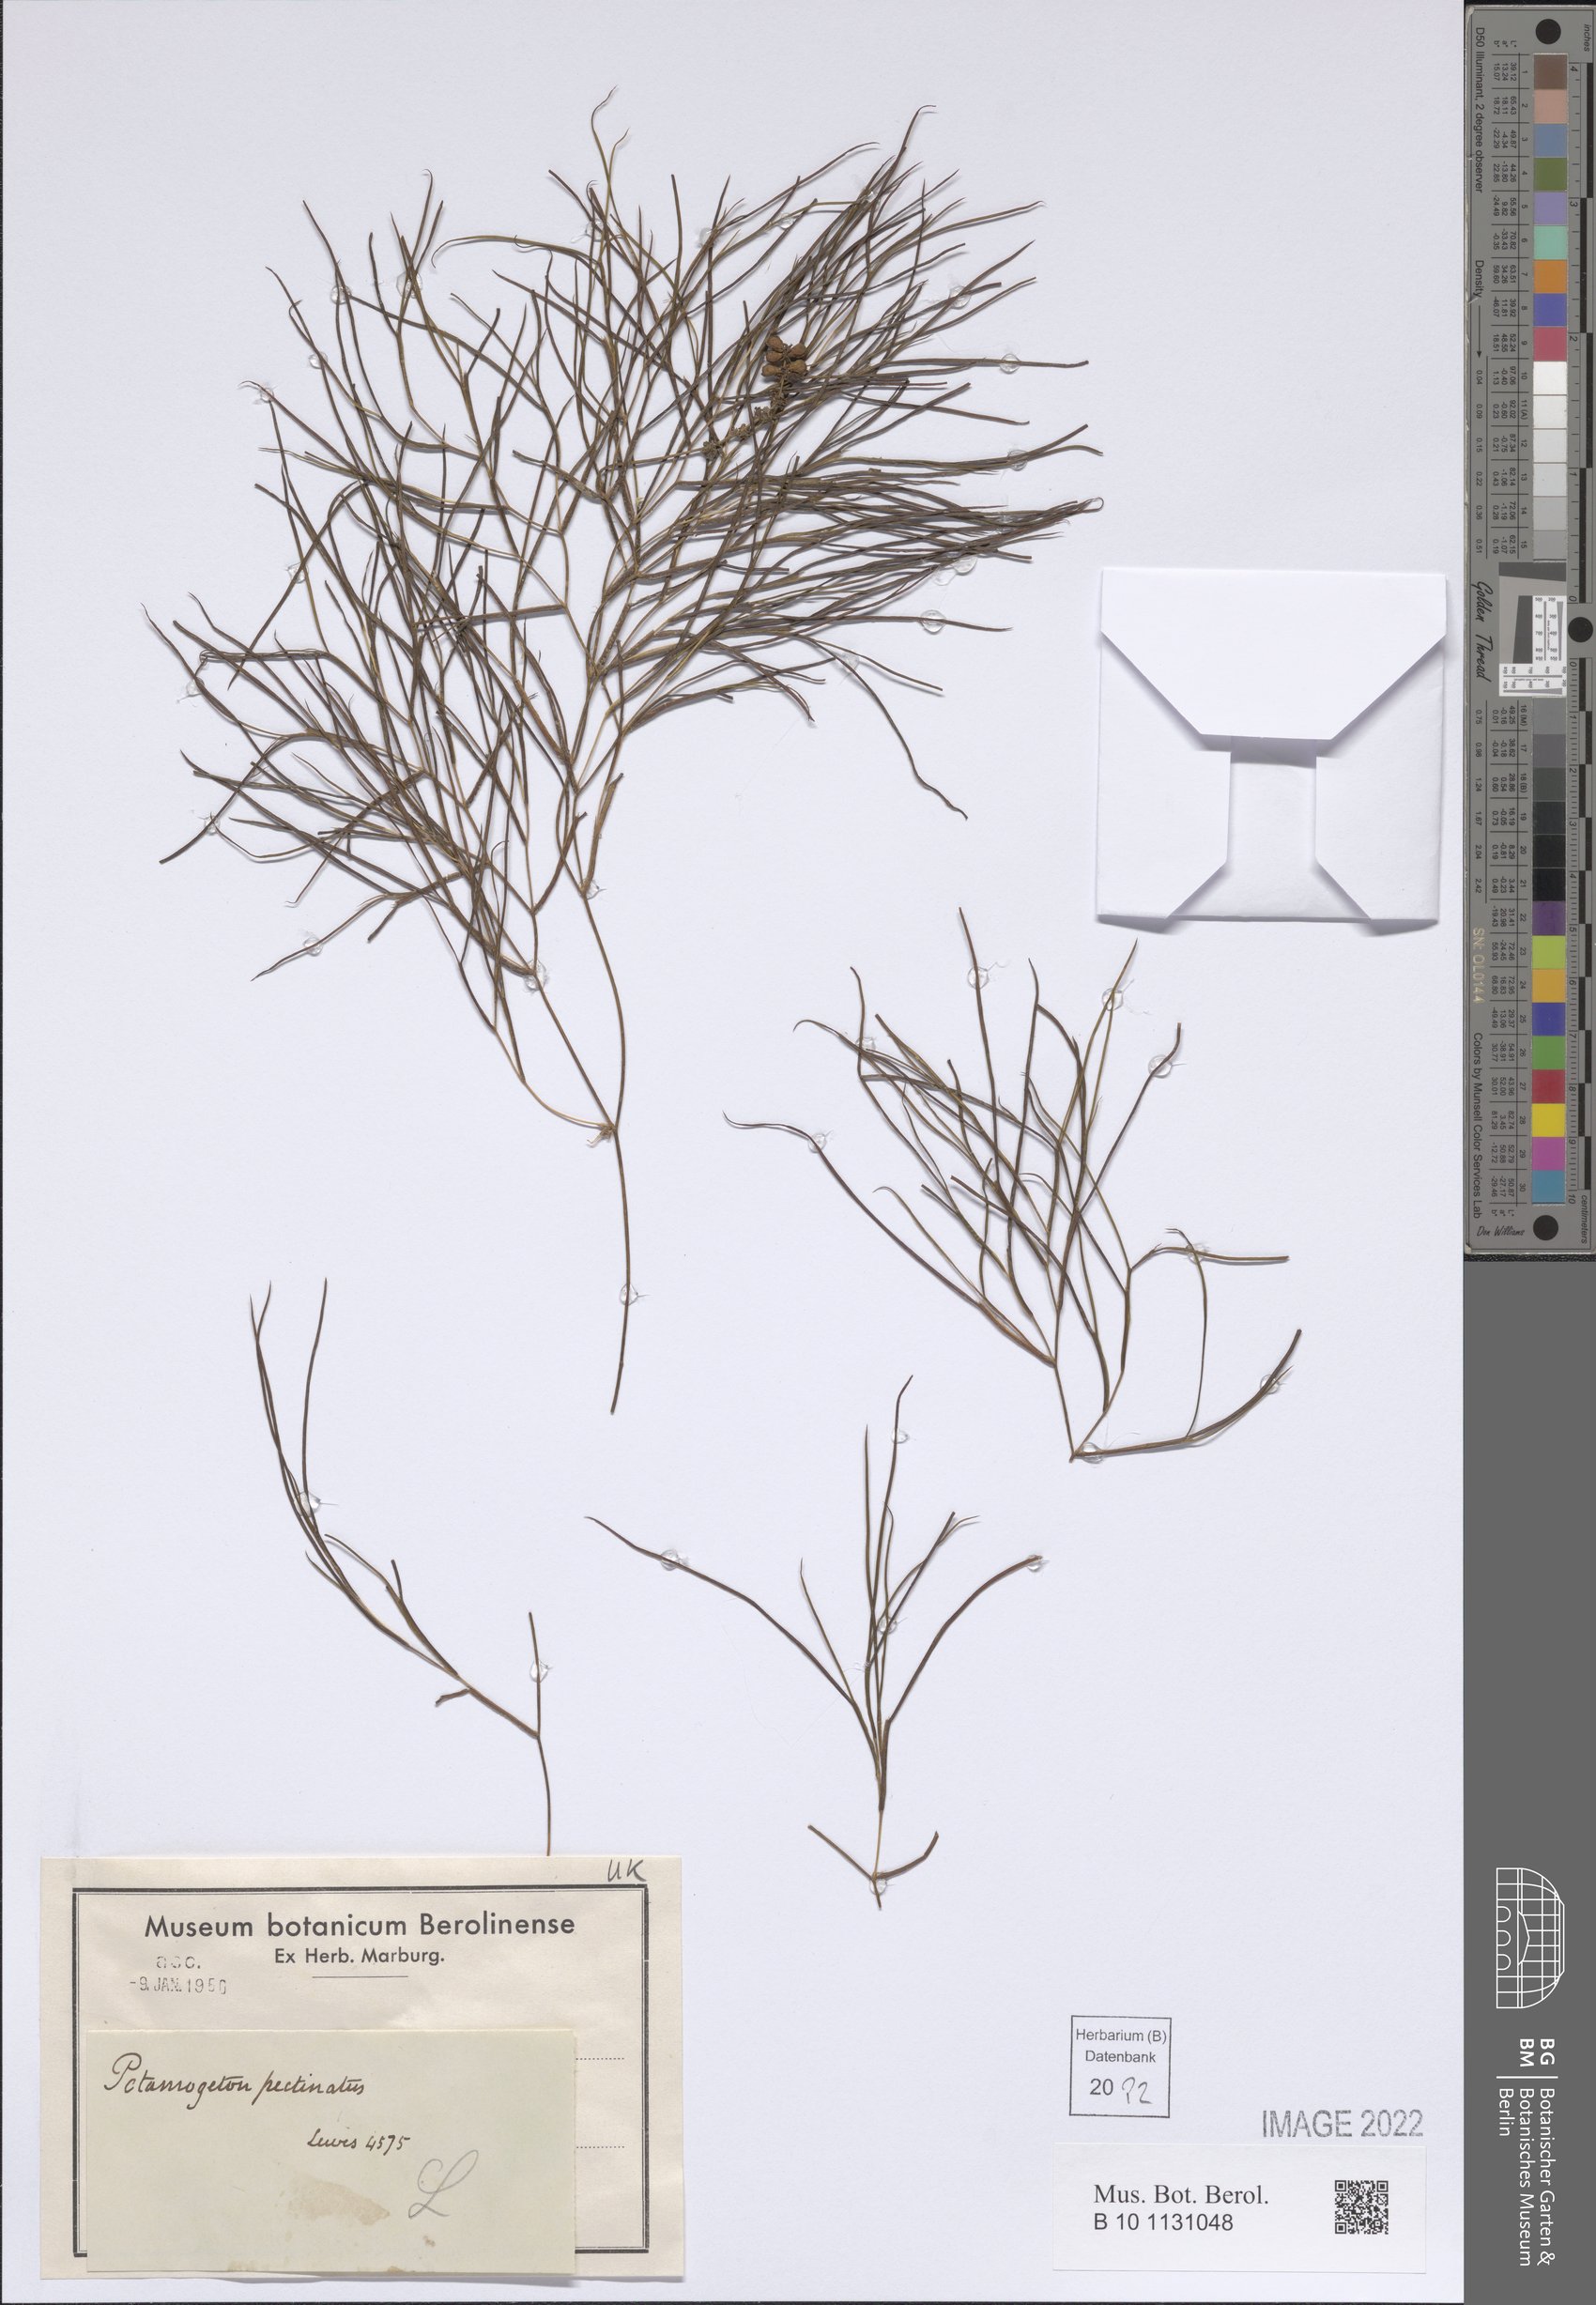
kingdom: Plantae
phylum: Tracheophyta
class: Liliopsida
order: Alismatales
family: Potamogetonaceae
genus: Stuckenia
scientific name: Stuckenia pectinata
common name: Sago pondweed
